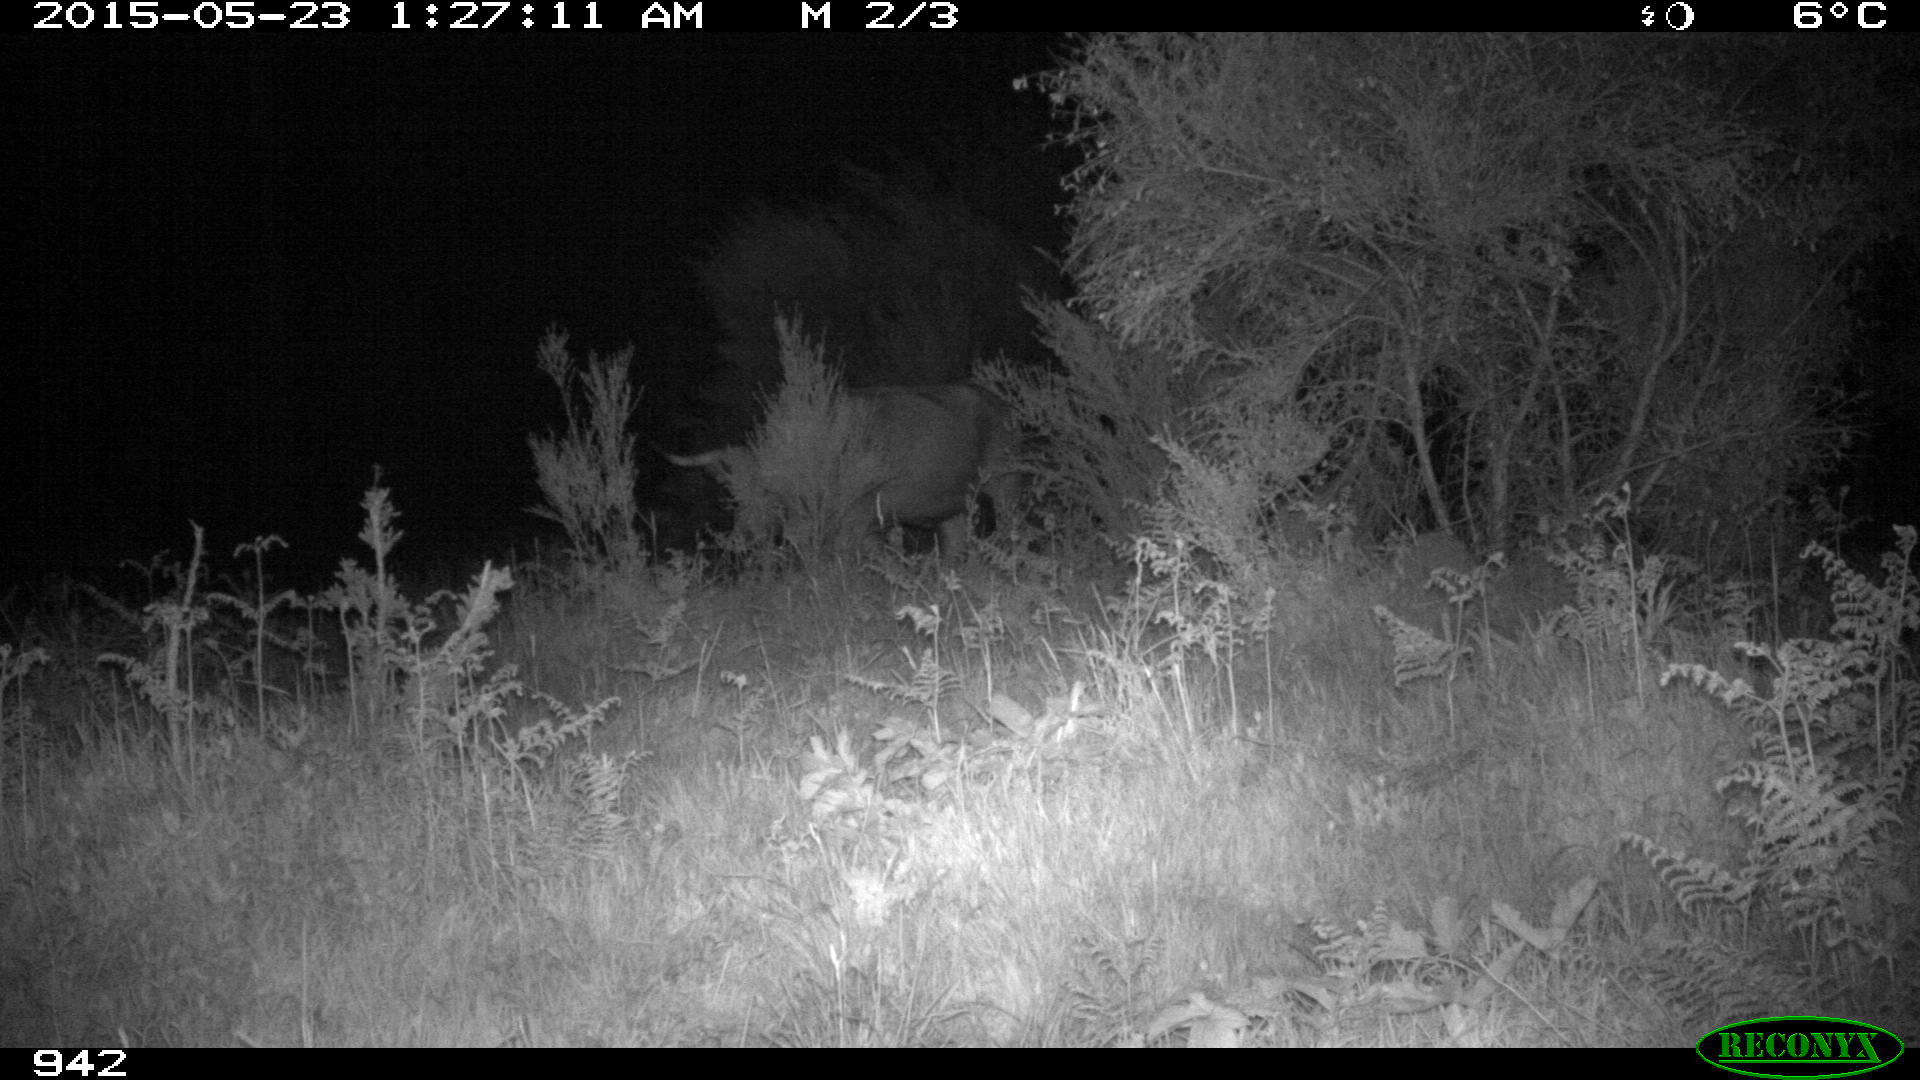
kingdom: Animalia
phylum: Chordata
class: Mammalia
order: Artiodactyla
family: Bovidae
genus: Bos
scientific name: Bos taurus
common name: Domesticated cattle
